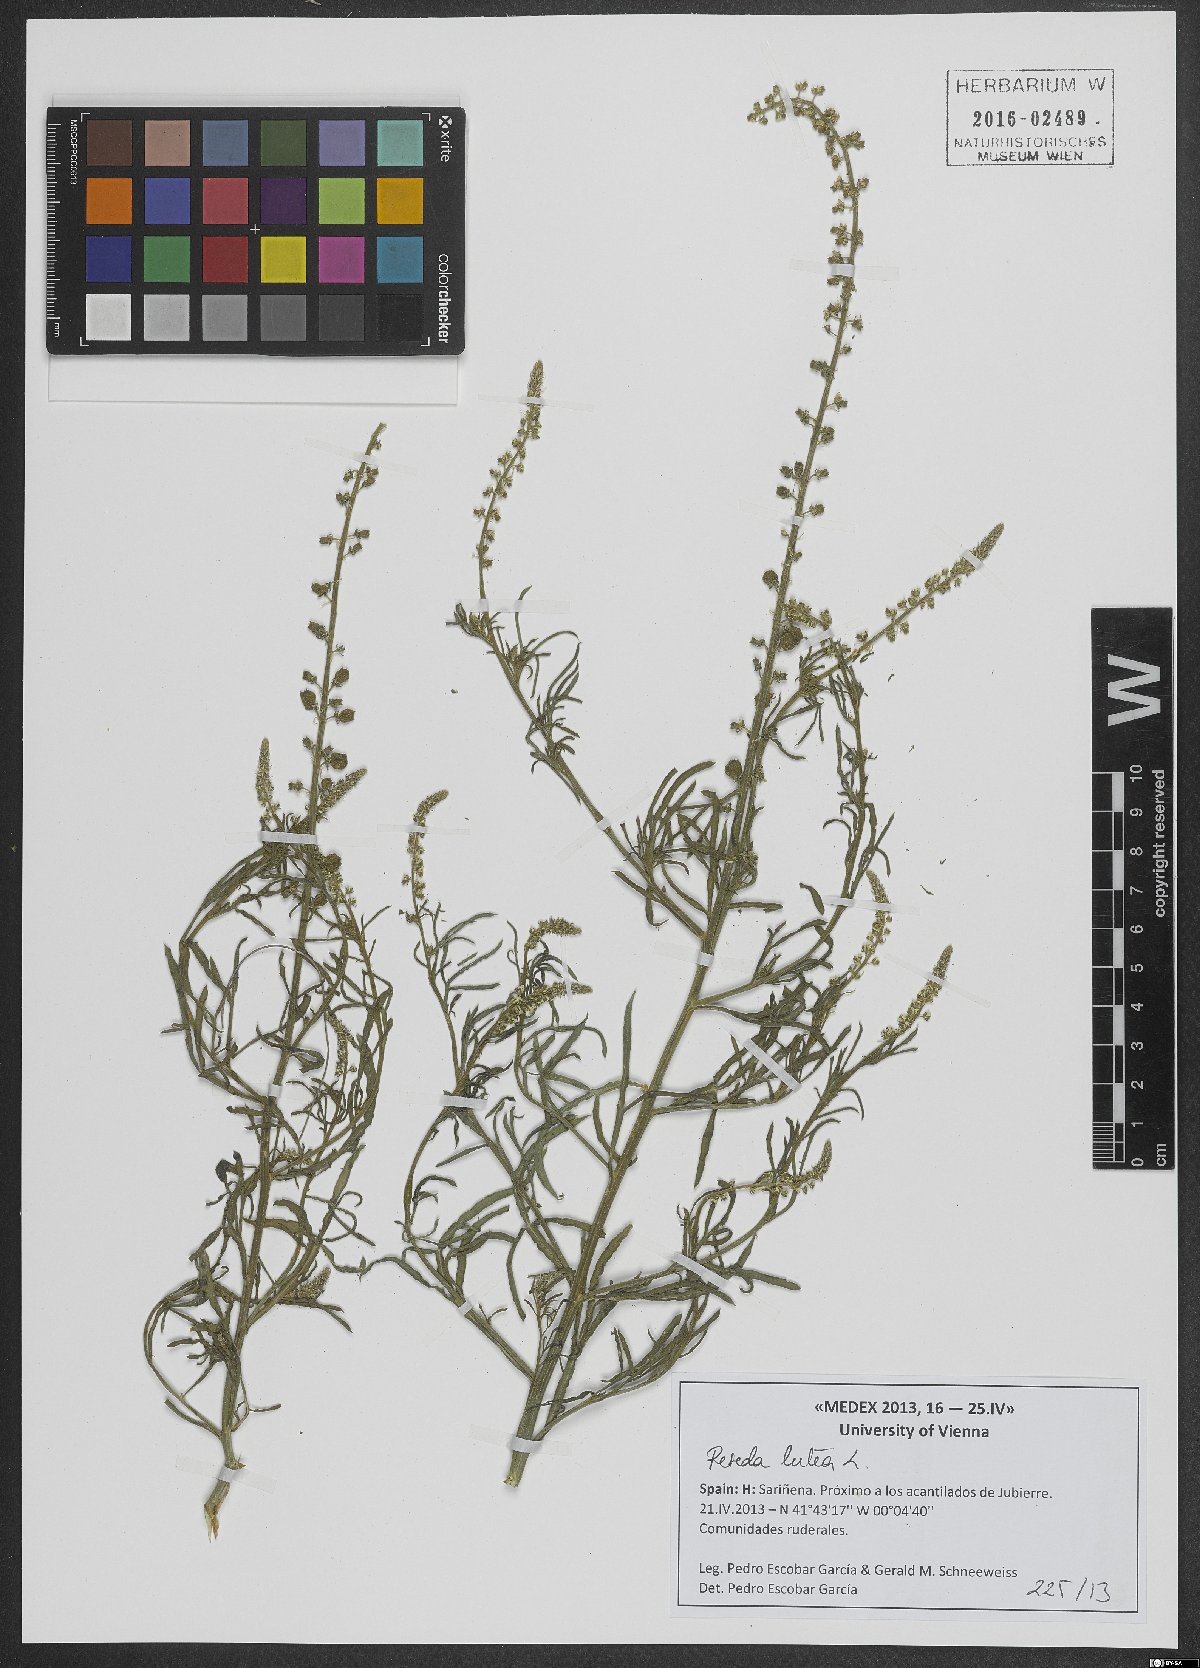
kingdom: Plantae
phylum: Tracheophyta
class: Magnoliopsida
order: Brassicales
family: Resedaceae
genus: Reseda
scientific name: Reseda lutea
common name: Wild mignonette
